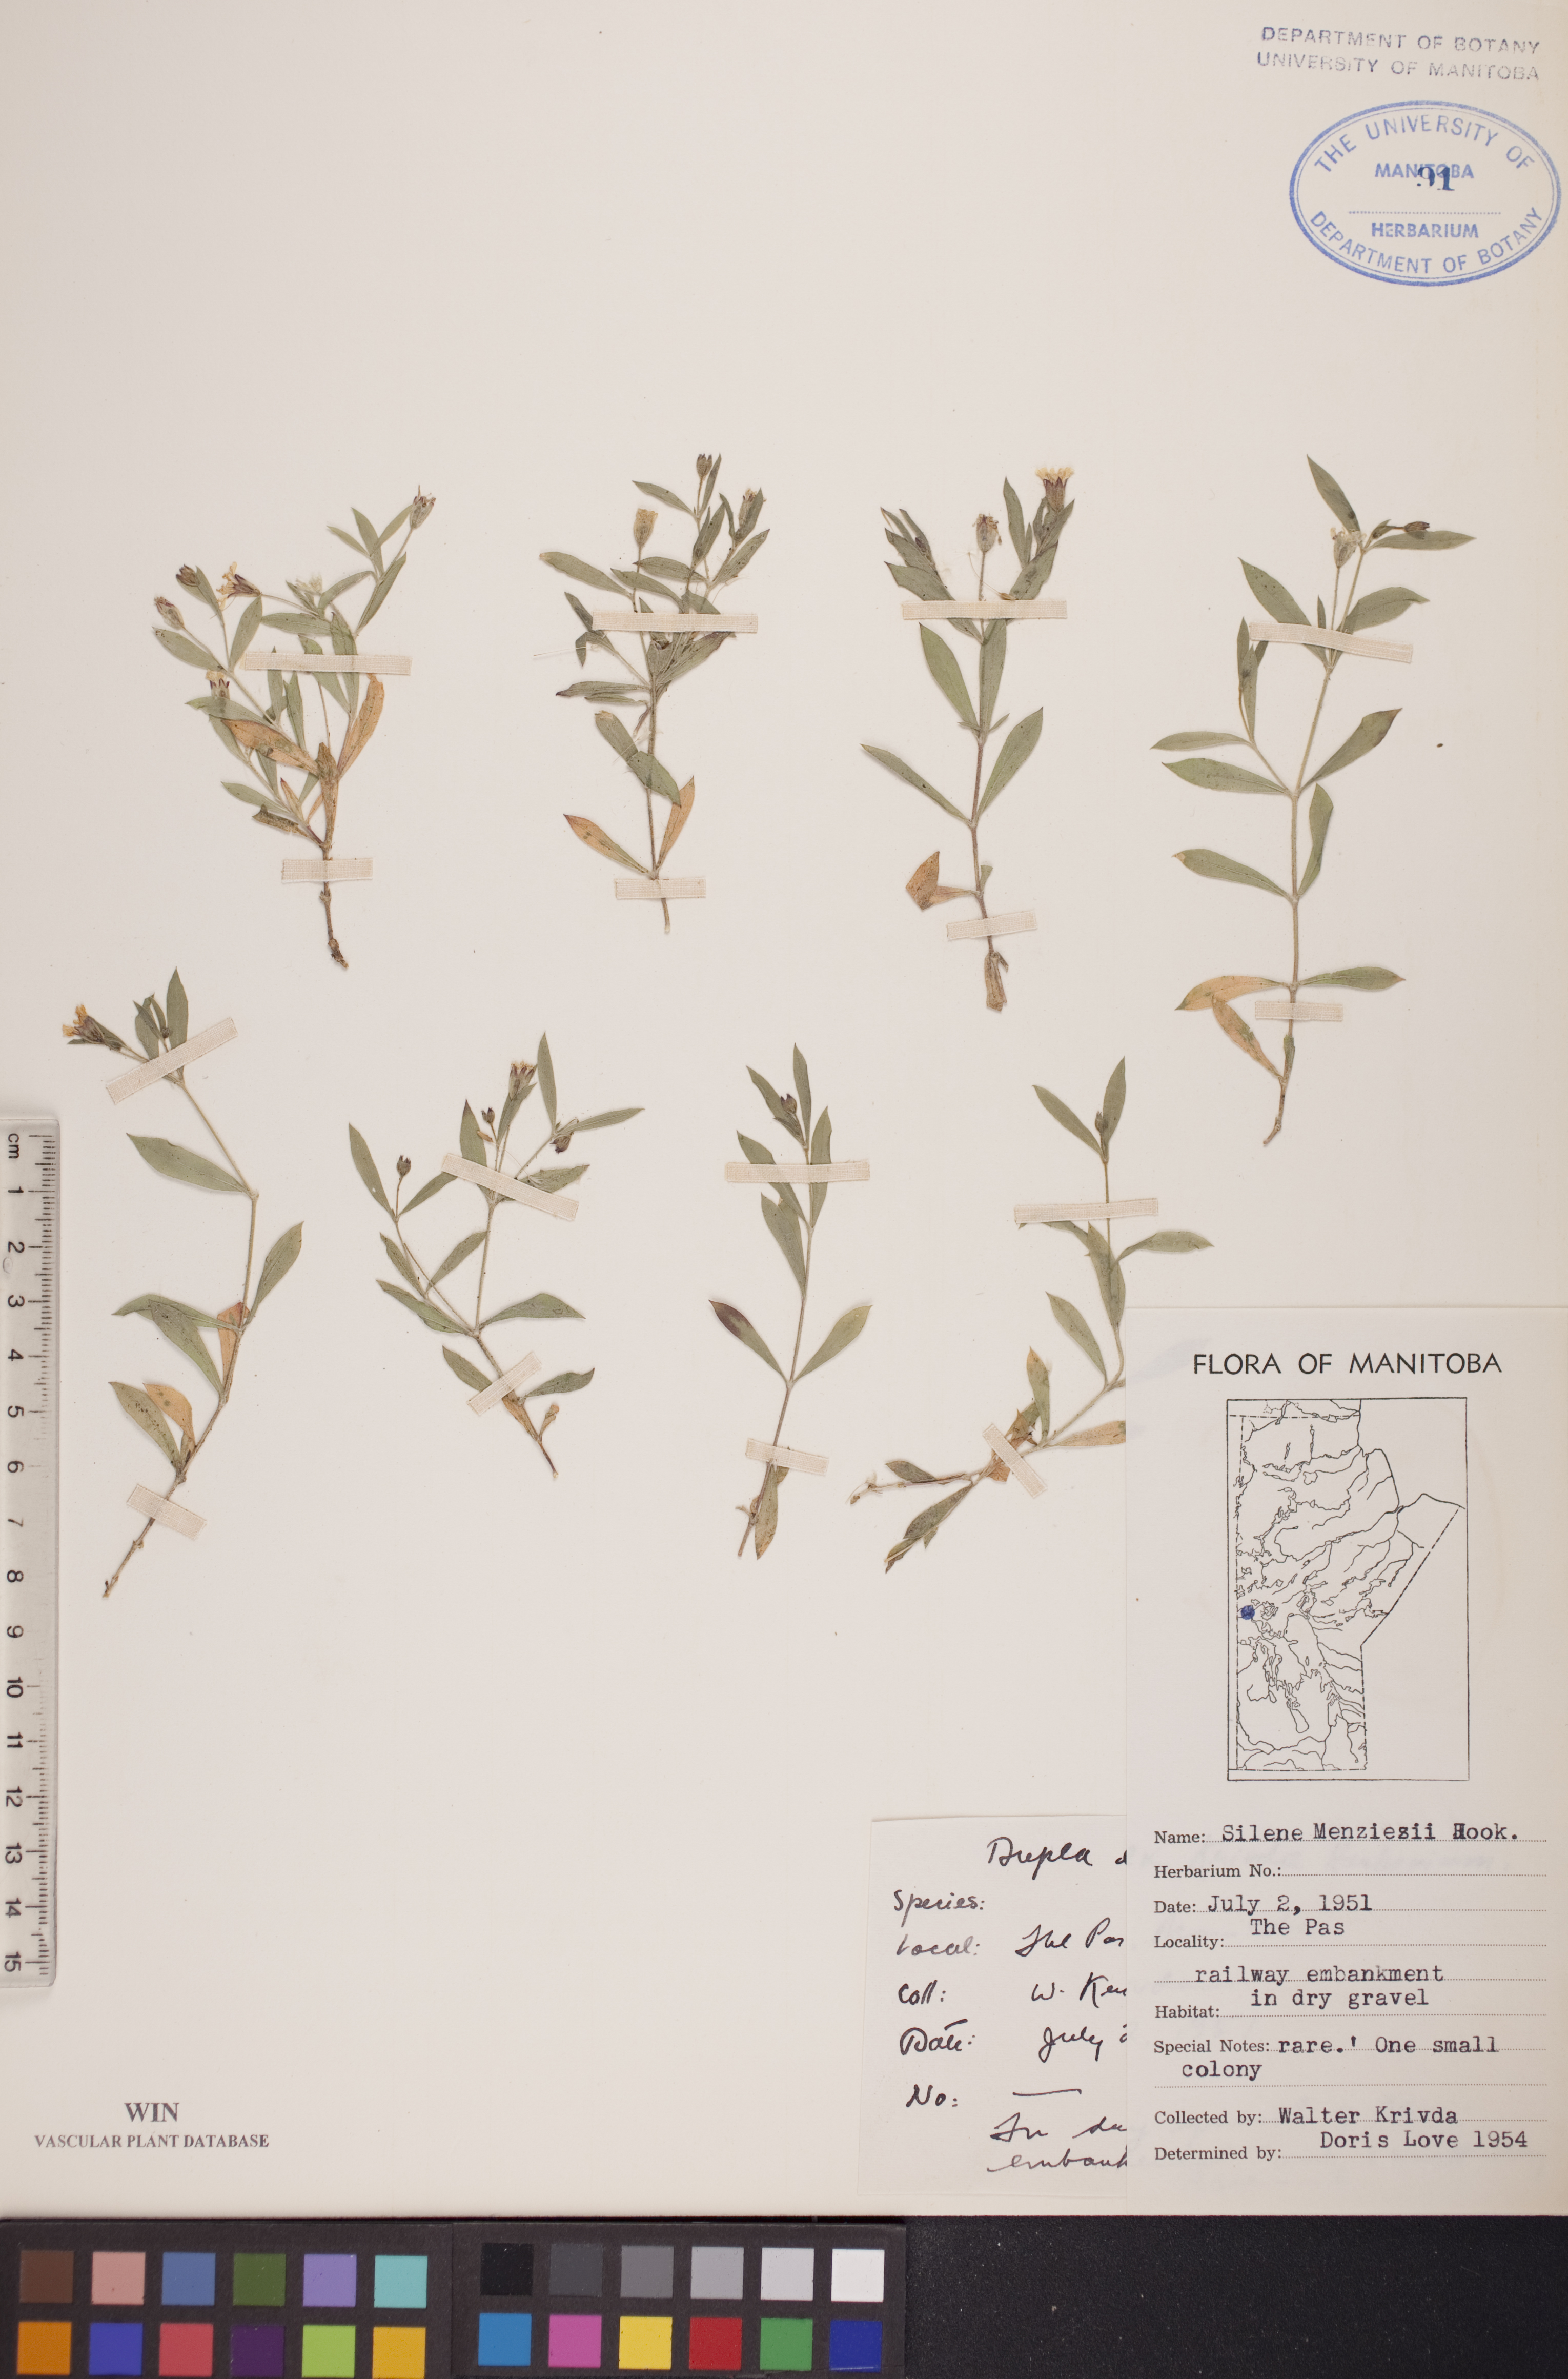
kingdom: Plantae
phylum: Tracheophyta
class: Magnoliopsida
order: Caryophyllales
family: Caryophyllaceae
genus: Silene
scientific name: Silene menziesii
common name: Menzies's catchfly
